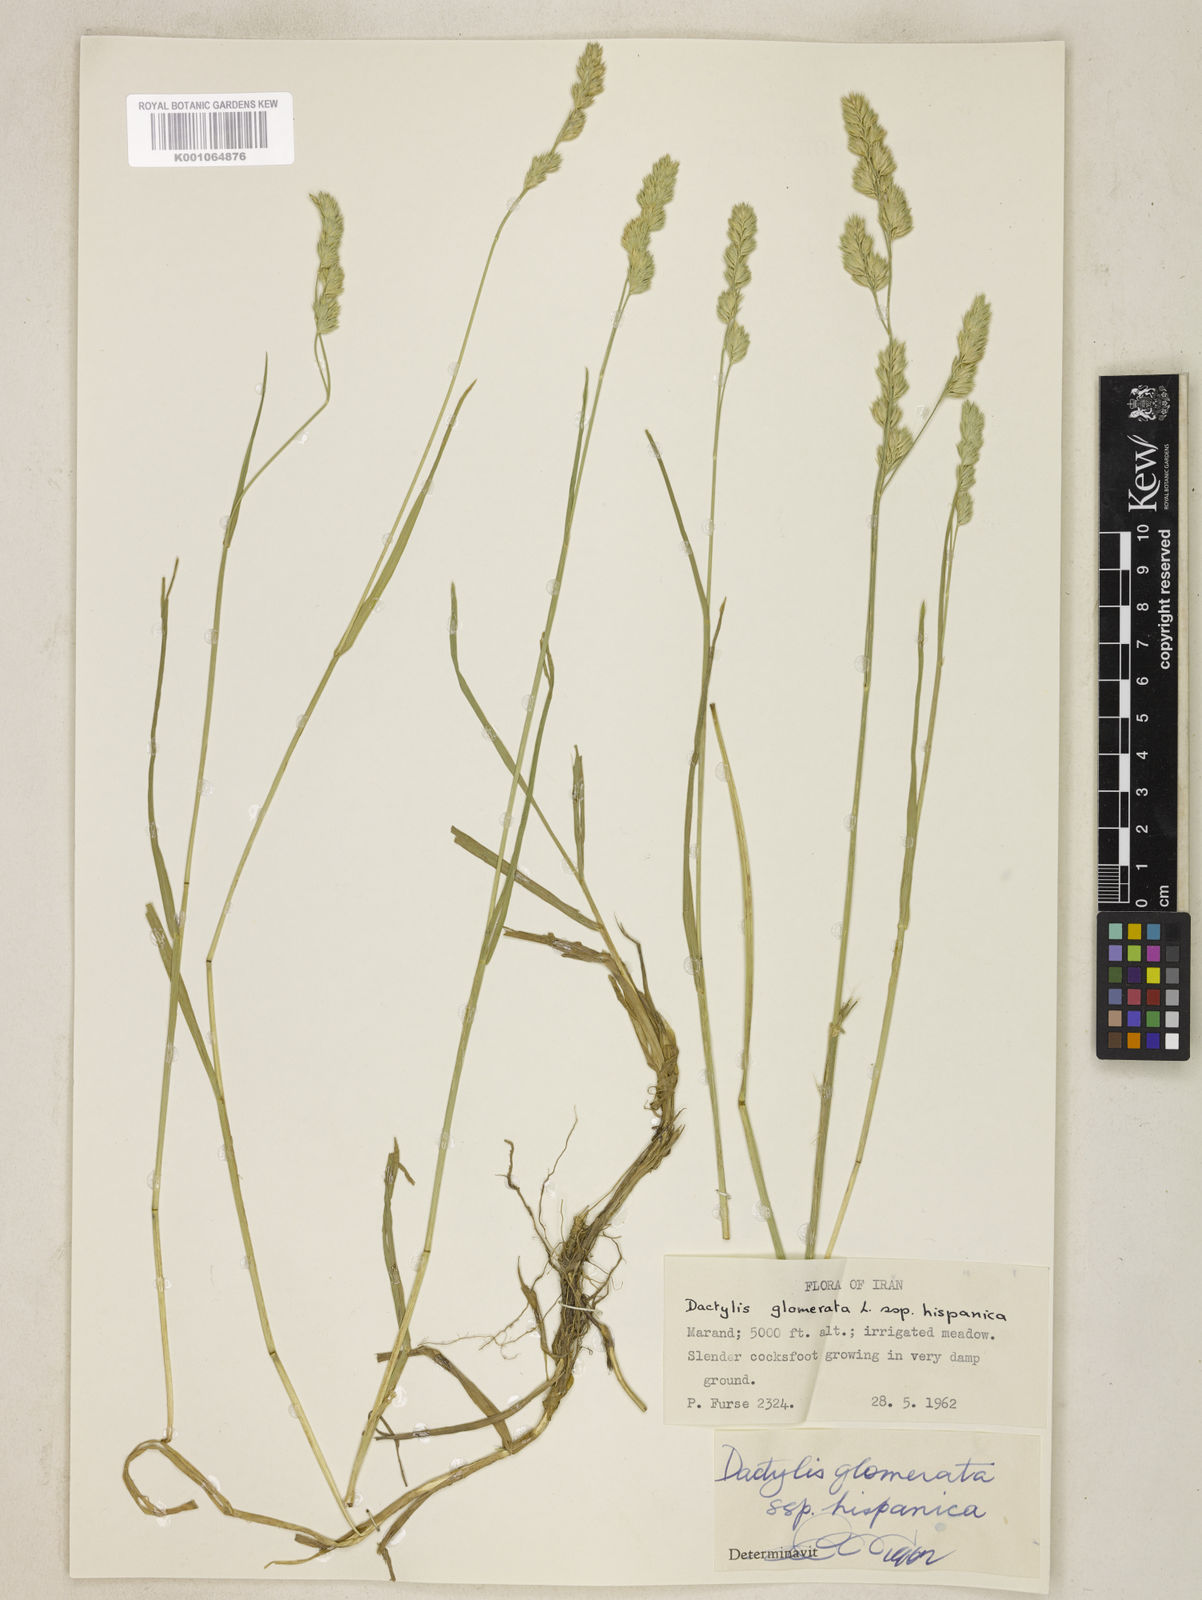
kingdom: Plantae
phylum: Tracheophyta
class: Liliopsida
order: Poales
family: Poaceae
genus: Dactylis
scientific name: Dactylis glomerata
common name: Orchardgrass
